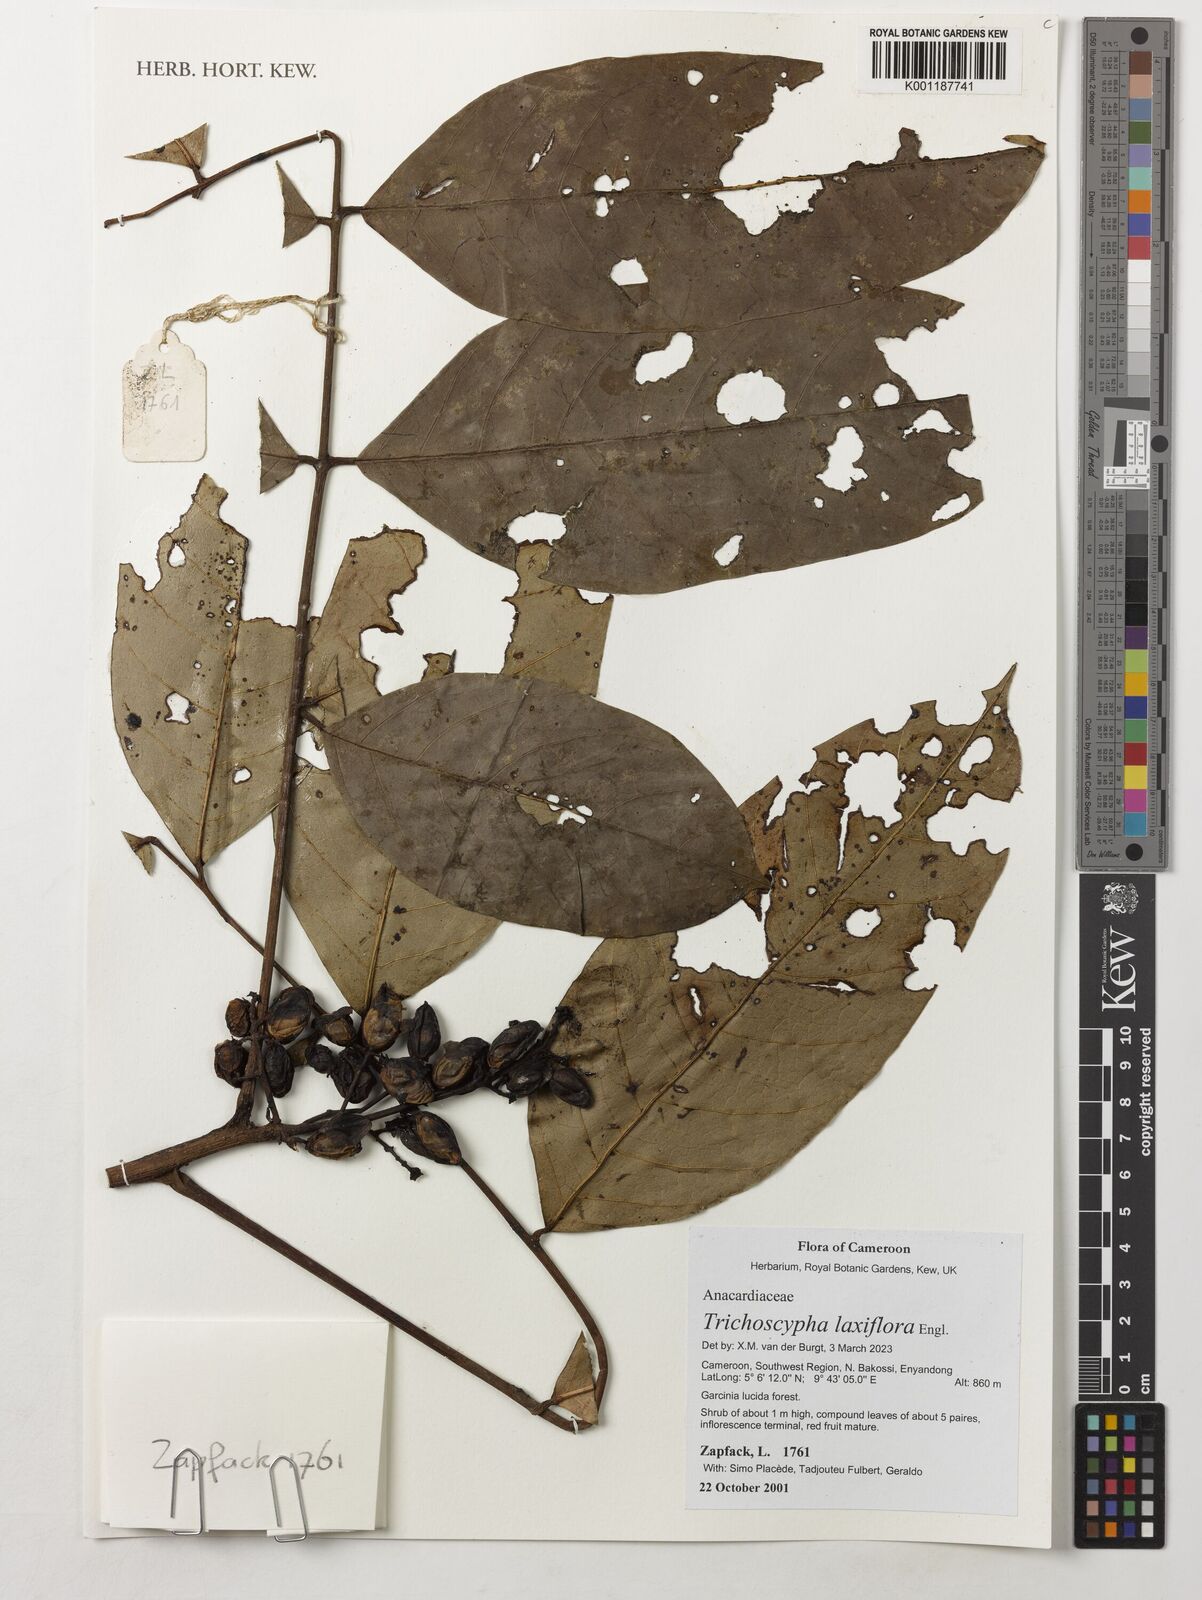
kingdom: Plantae
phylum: Tracheophyta
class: Magnoliopsida
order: Sapindales
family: Anacardiaceae
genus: Trichoscypha
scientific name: Trichoscypha laxiflora
